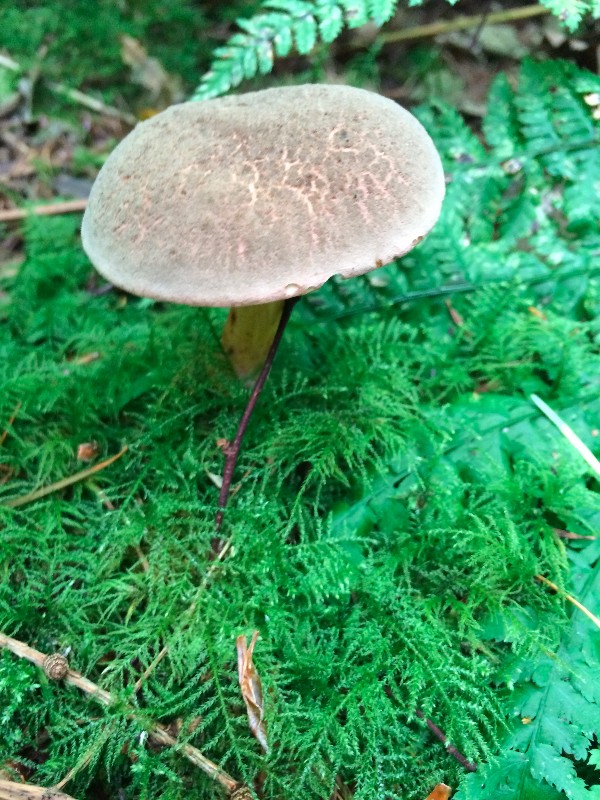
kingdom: Fungi
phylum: Basidiomycota
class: Agaricomycetes
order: Boletales
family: Boletaceae
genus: Xerocomellus
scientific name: Xerocomellus
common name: dværgrørhat
